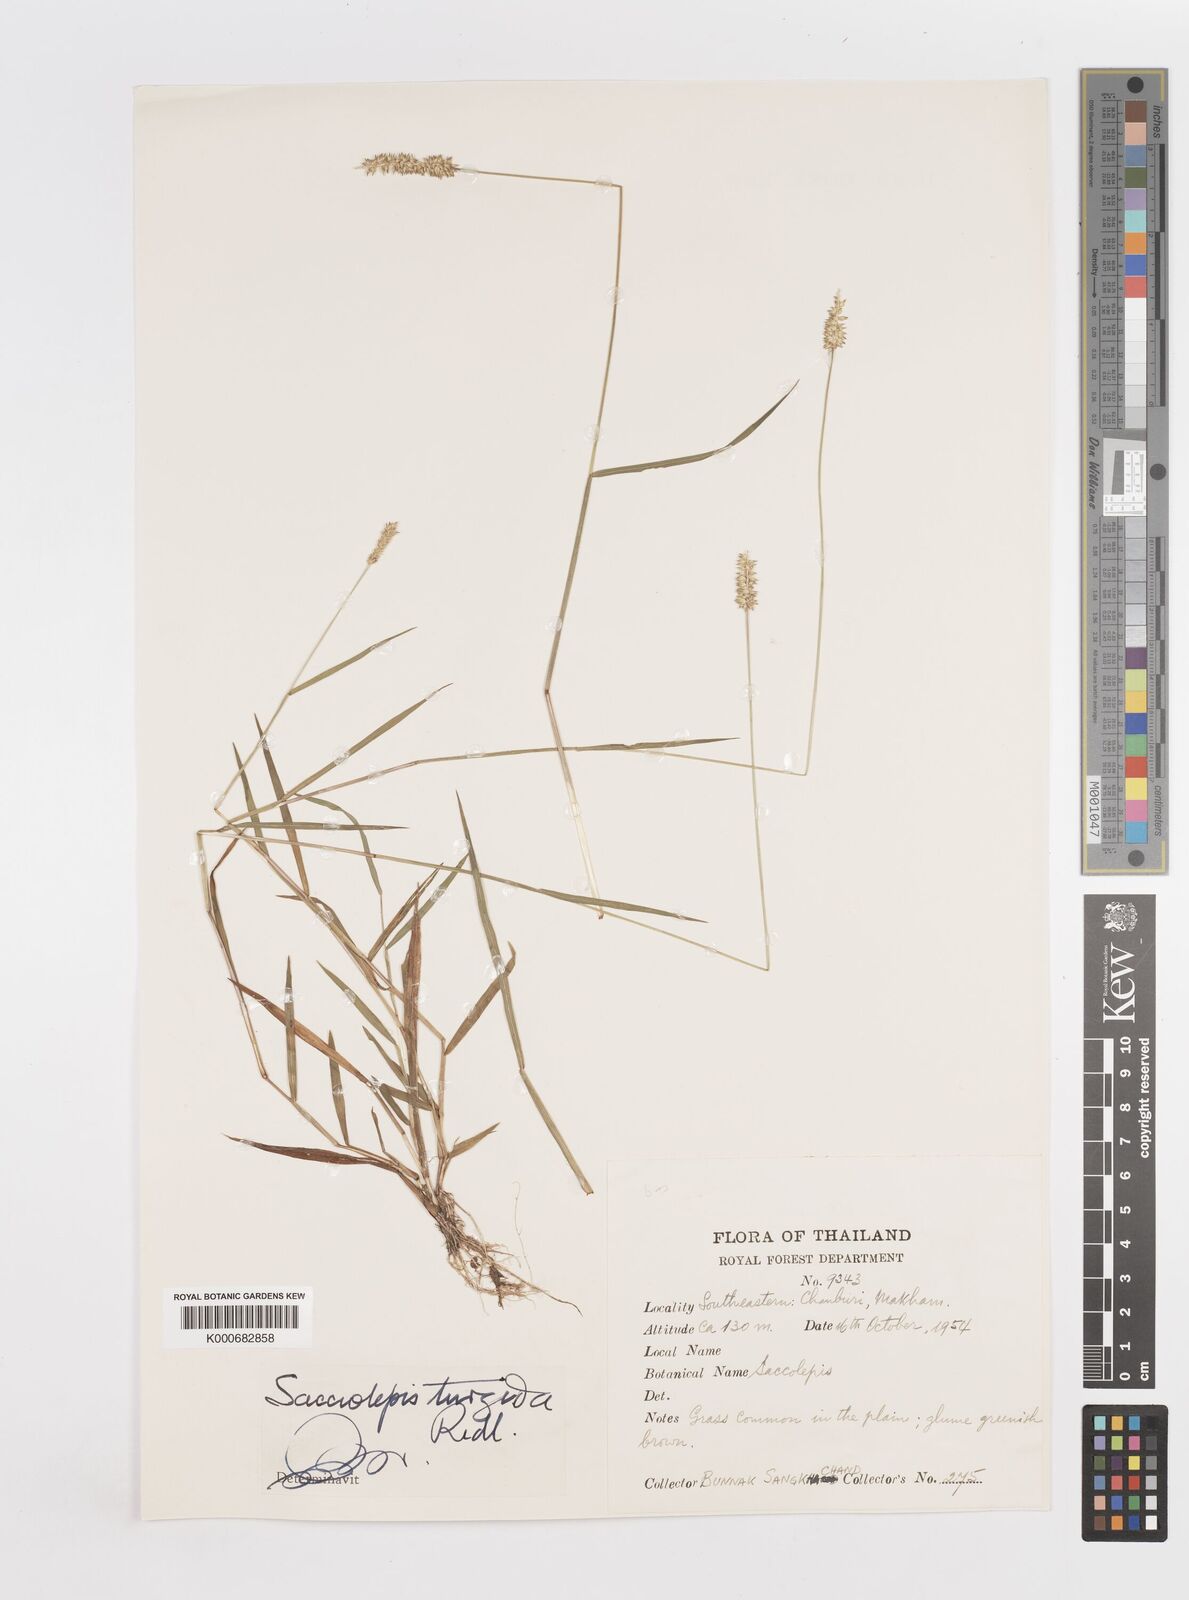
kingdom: Plantae
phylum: Tracheophyta
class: Liliopsida
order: Poales
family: Poaceae
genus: Sacciolepis
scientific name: Sacciolepis indica
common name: Glenwoodgrass
